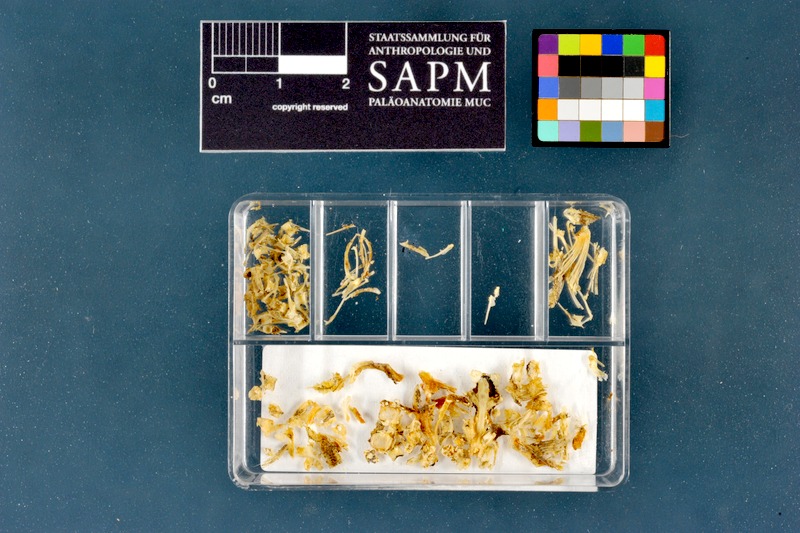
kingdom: Animalia
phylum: Chordata
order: Cypriniformes
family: Cobitidae
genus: Cobitis
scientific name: Cobitis taenia
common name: Spined loach
